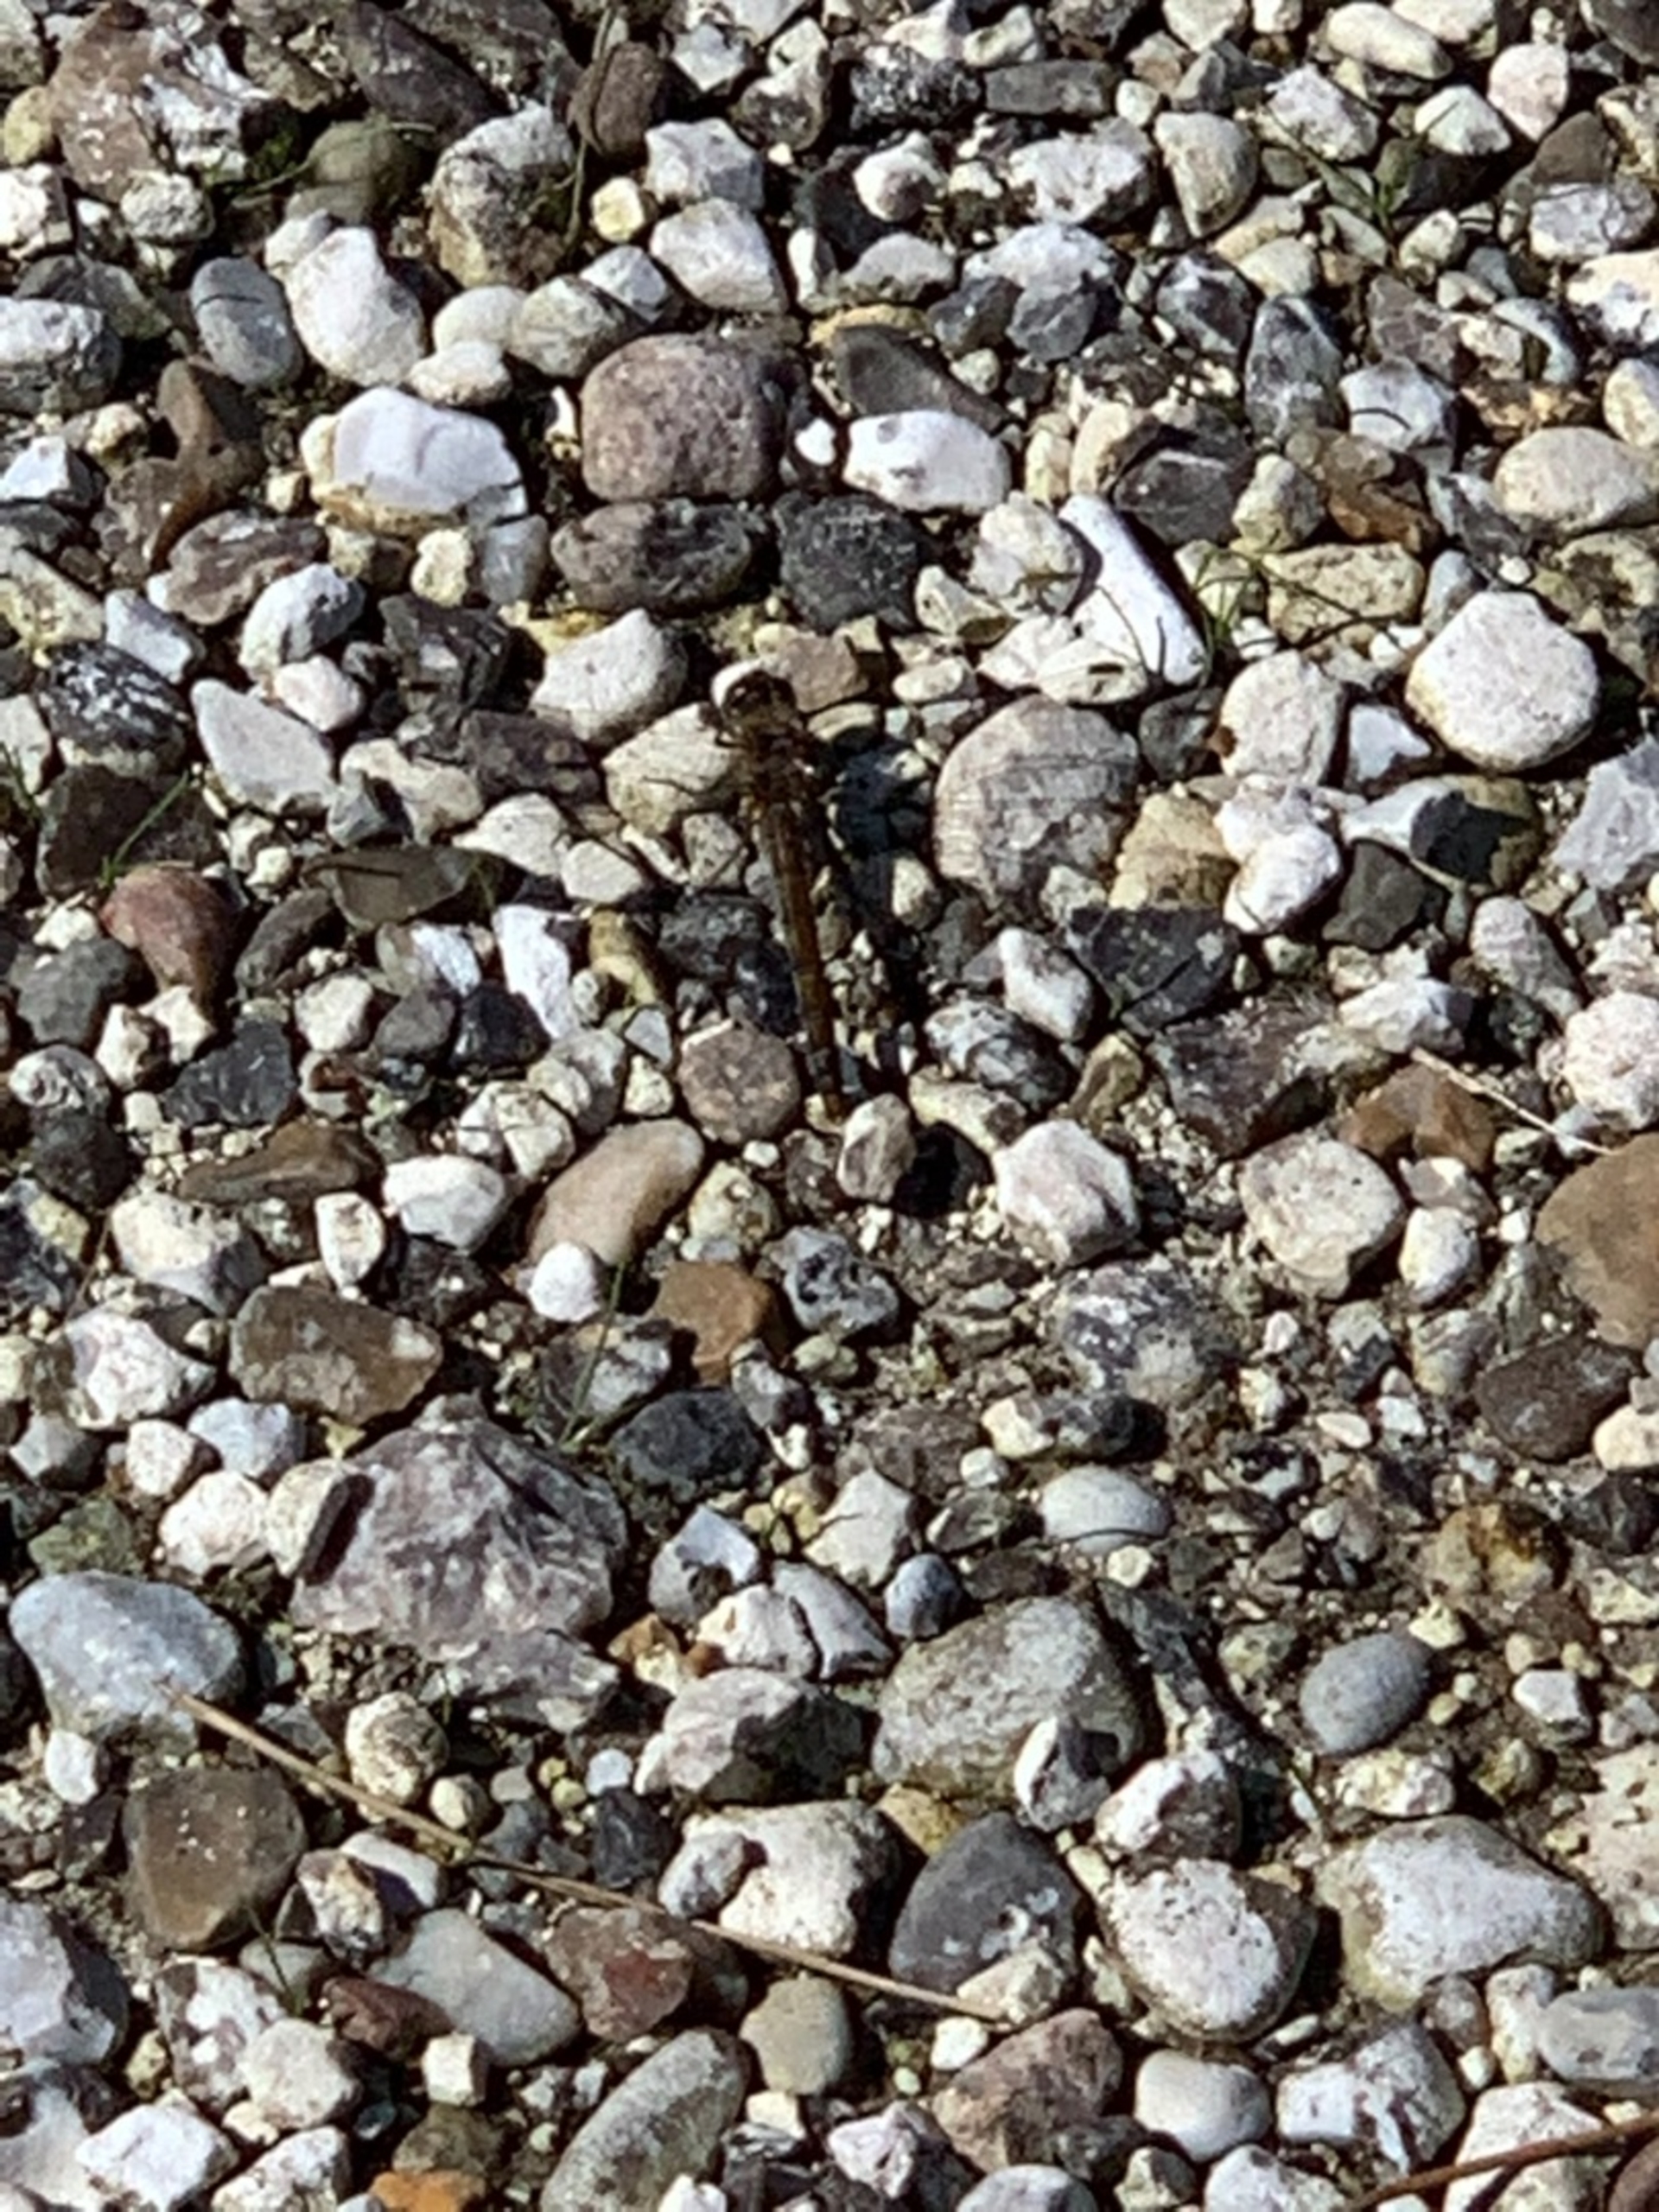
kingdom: Animalia
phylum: Arthropoda
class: Insecta
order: Odonata
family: Libellulidae
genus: Sympetrum
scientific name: Sympetrum
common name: Hedelibeller
